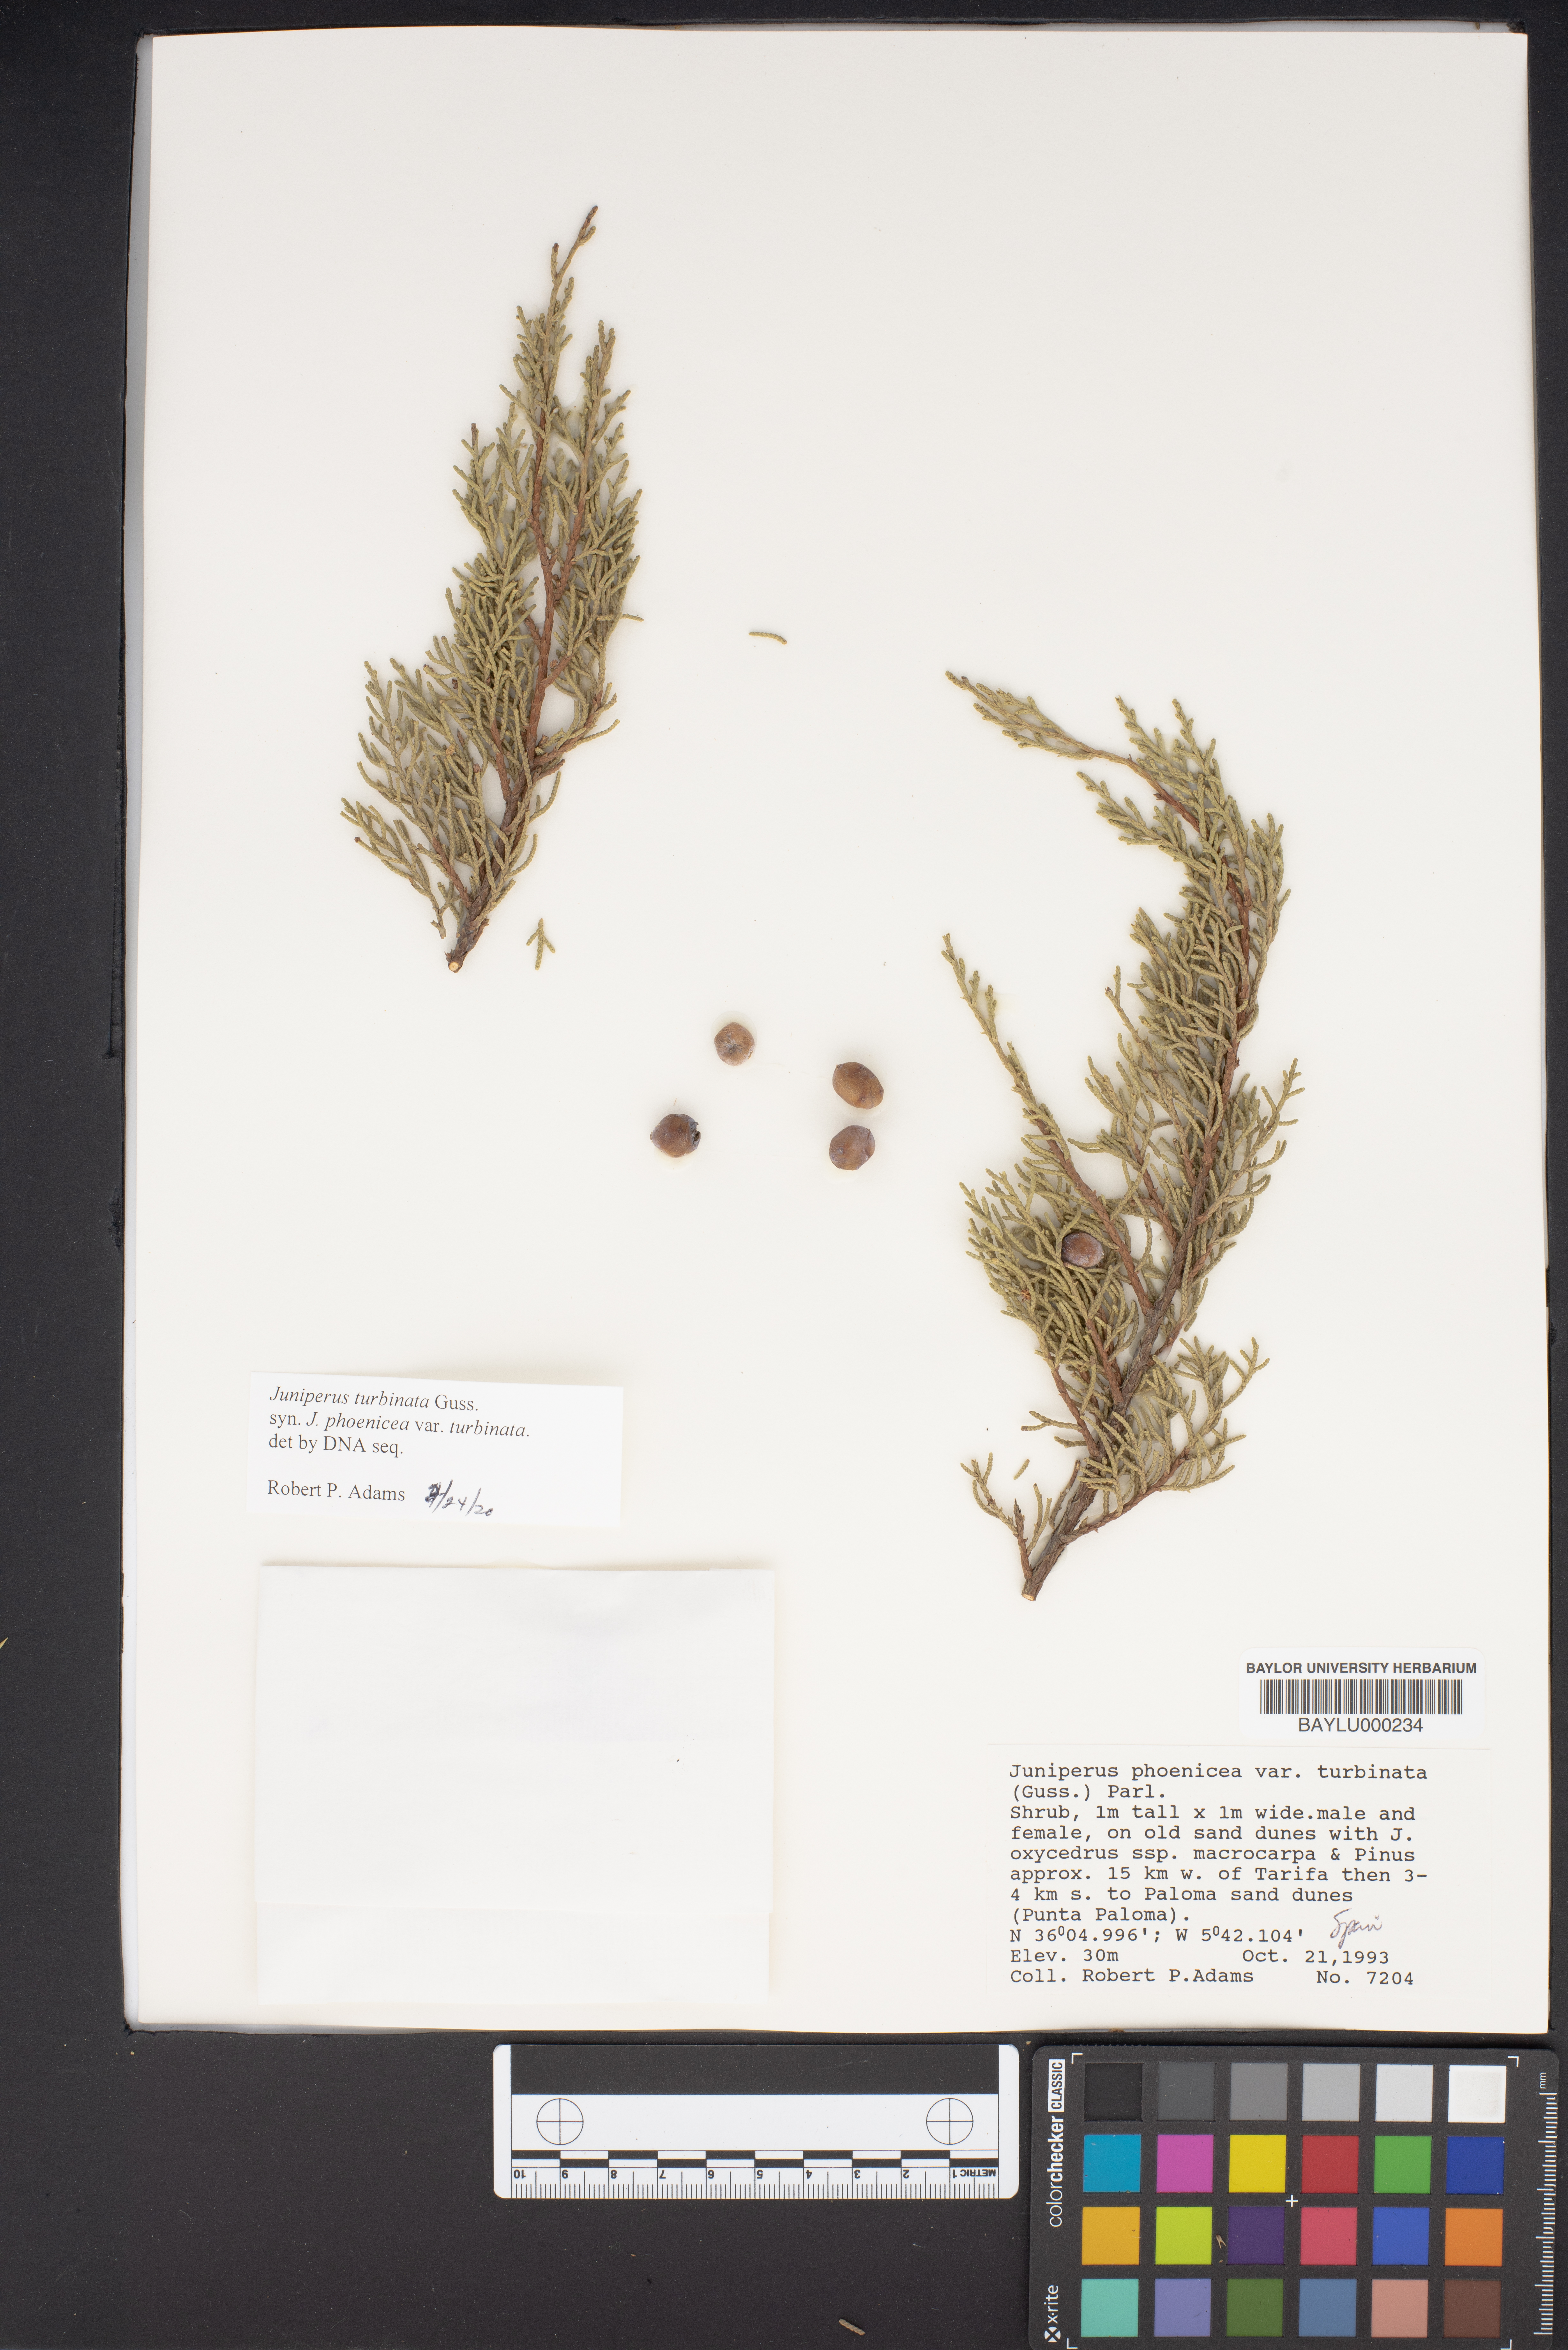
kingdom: Plantae
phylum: Tracheophyta
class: Pinopsida
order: Pinales
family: Cupressaceae
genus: Juniperus
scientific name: Juniperus phoenicea
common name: Phoenician juniper
